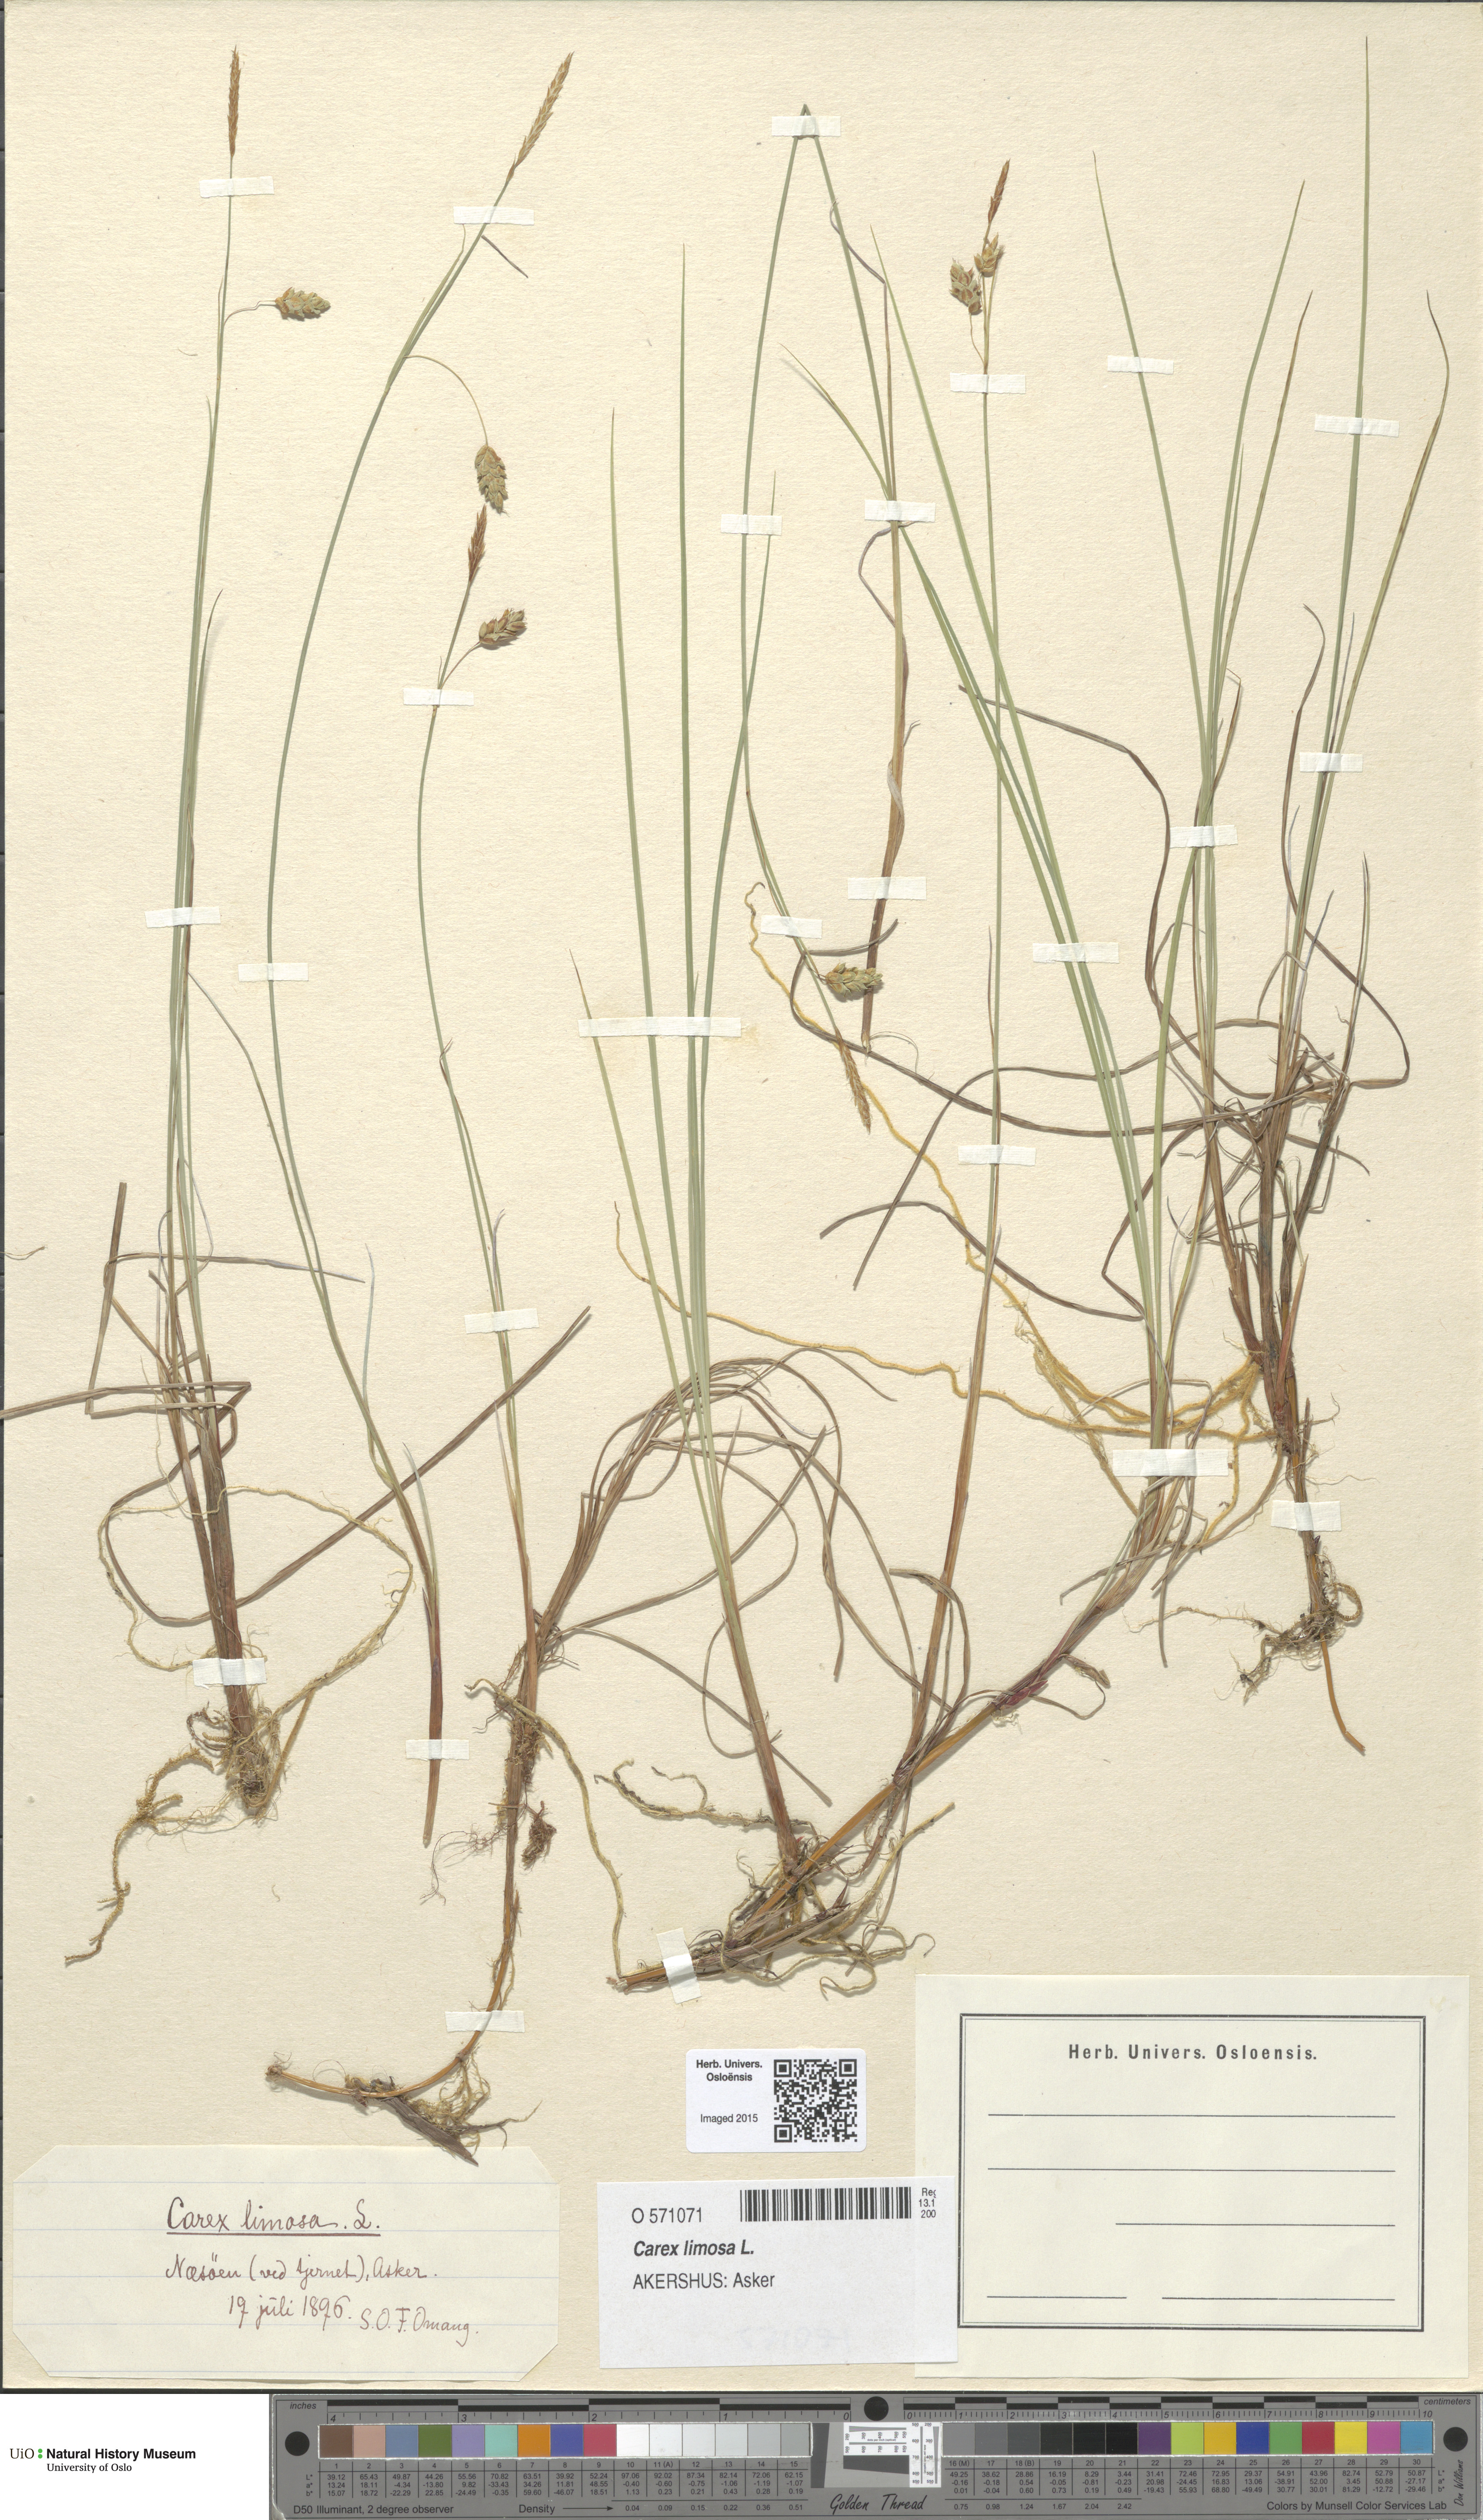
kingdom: Plantae
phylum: Tracheophyta
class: Liliopsida
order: Poales
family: Cyperaceae
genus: Carex
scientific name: Carex limosa
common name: Bog sedge
